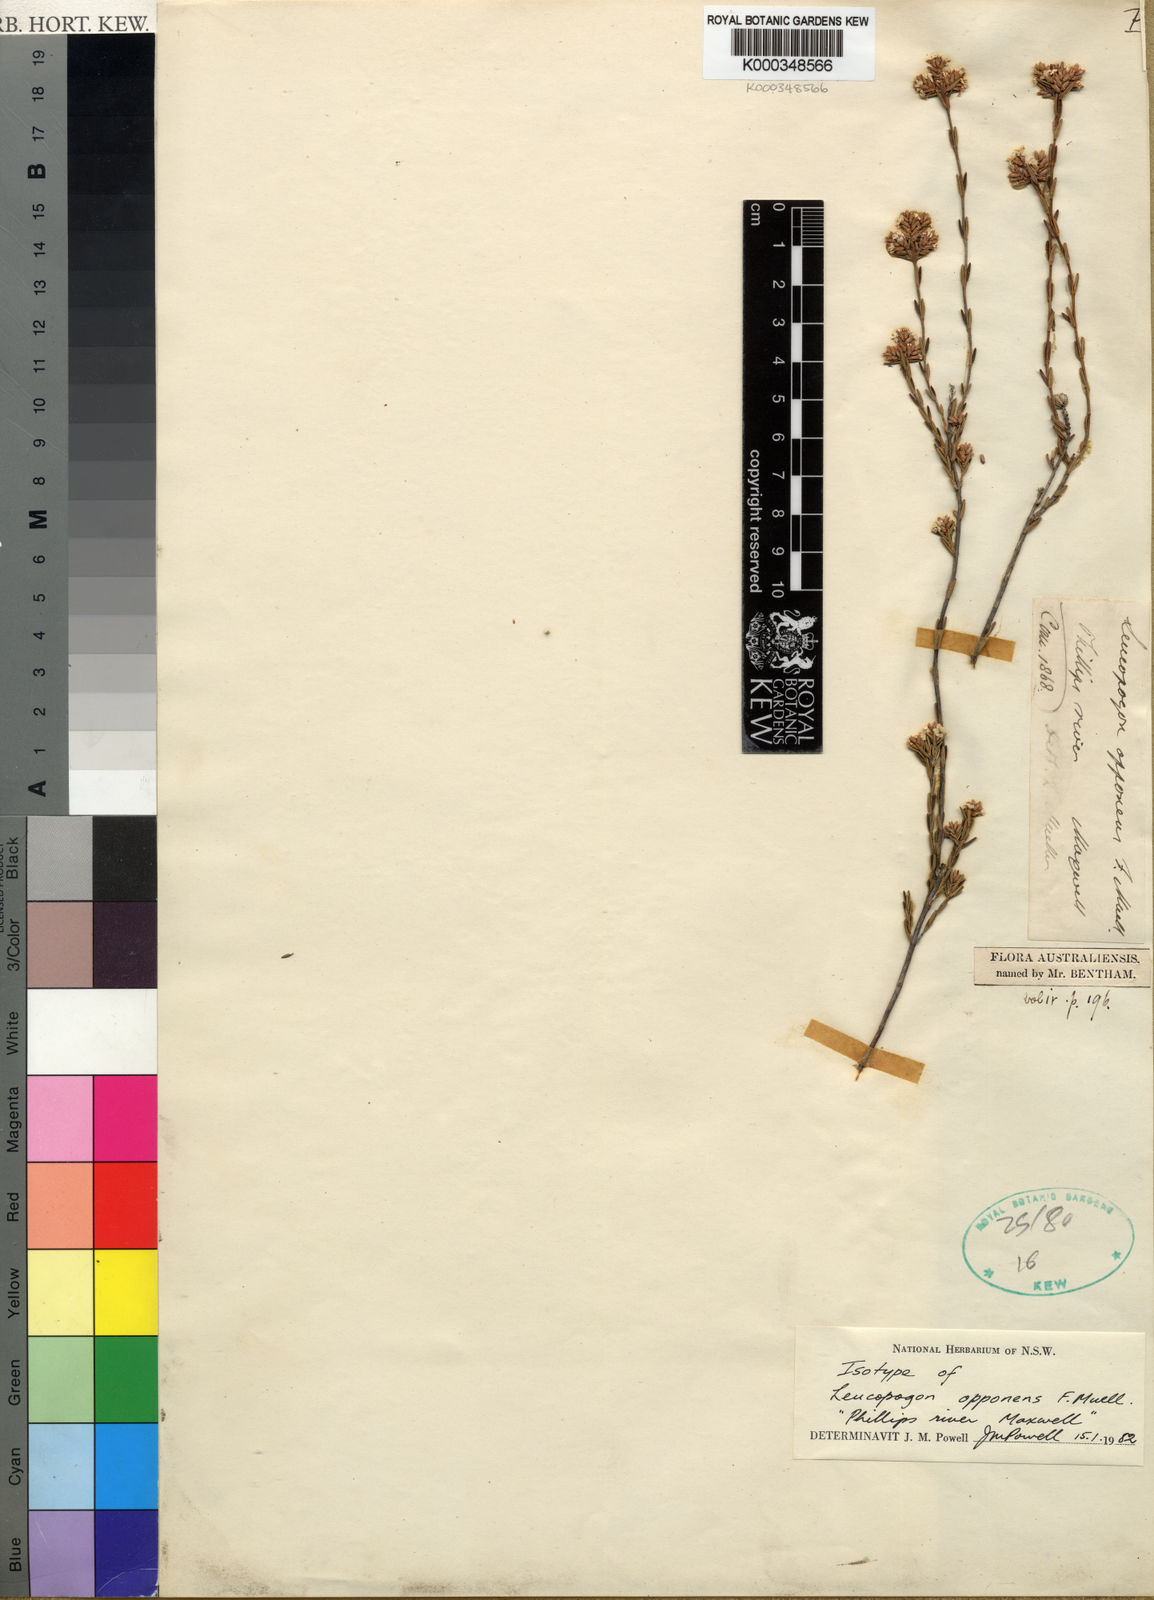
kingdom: Plantae
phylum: Tracheophyta
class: Magnoliopsida
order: Ericales
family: Ericaceae
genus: Leucopogon
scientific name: Leucopogon opponens
